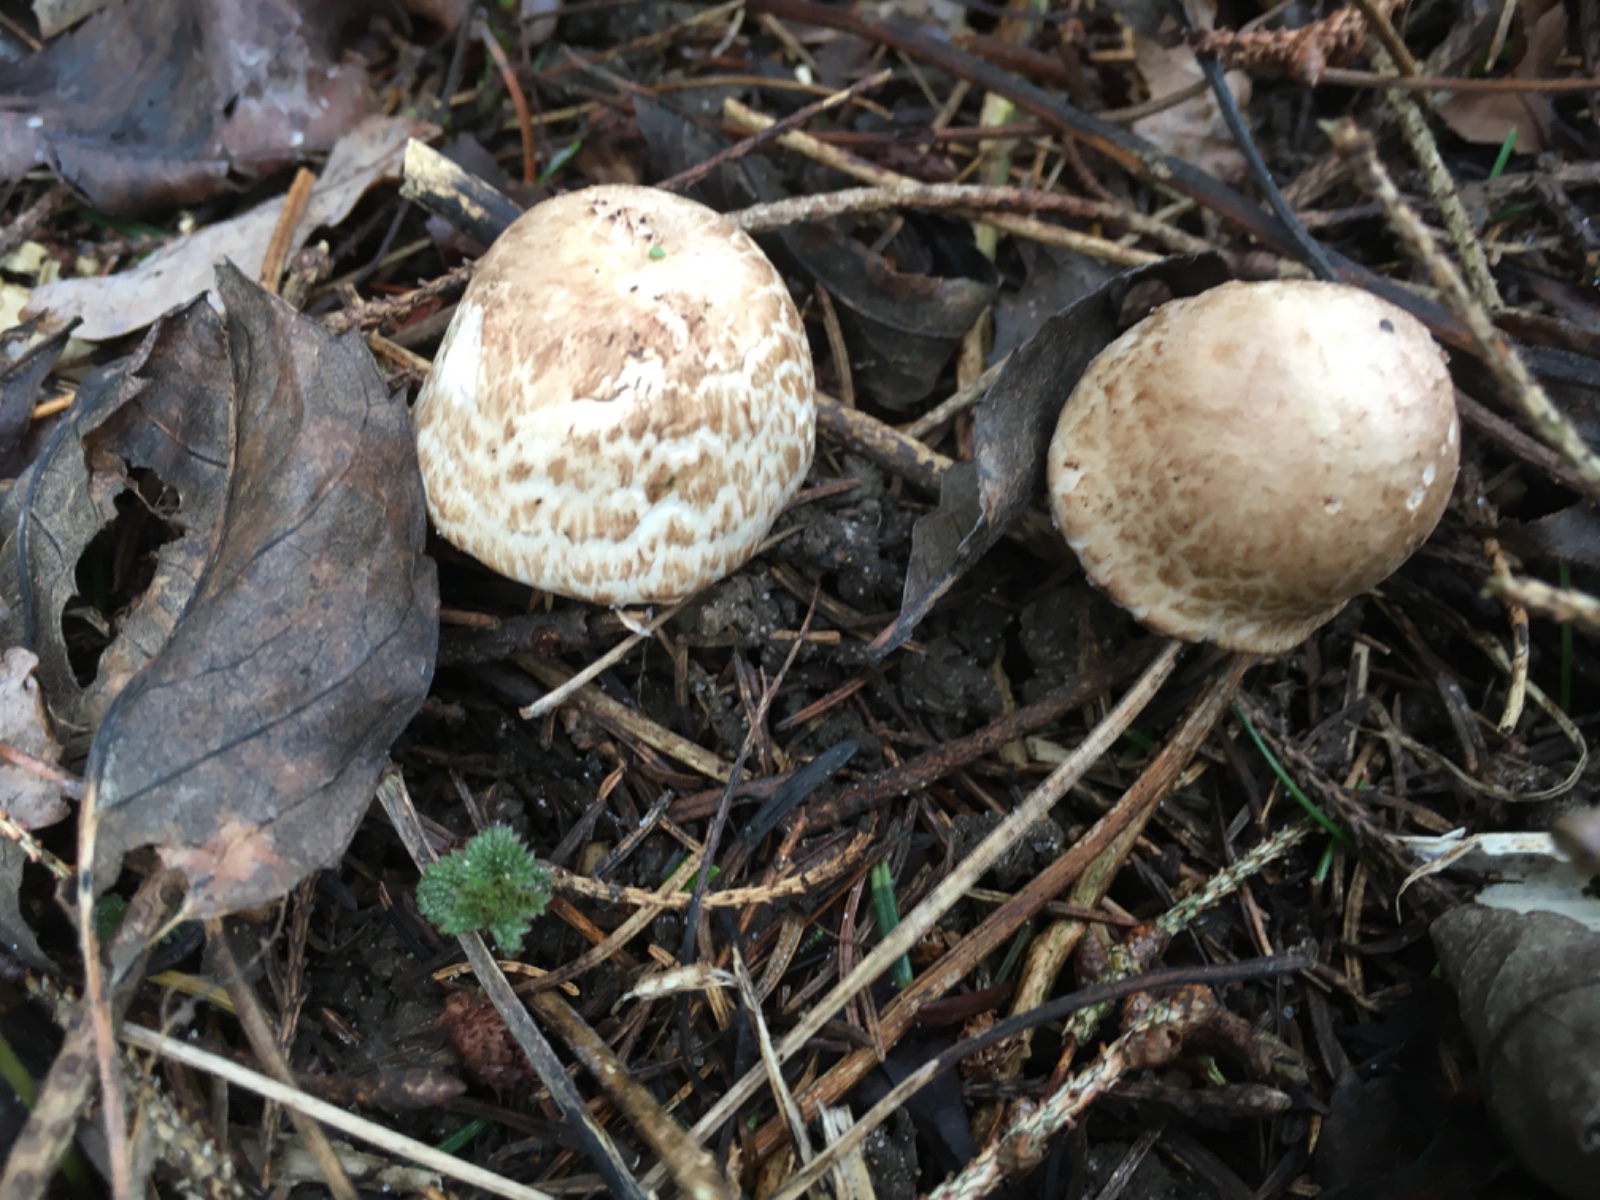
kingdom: Fungi
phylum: Basidiomycota
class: Agaricomycetes
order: Agaricales
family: Agaricaceae
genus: Agaricus
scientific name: Agaricus impudicus
